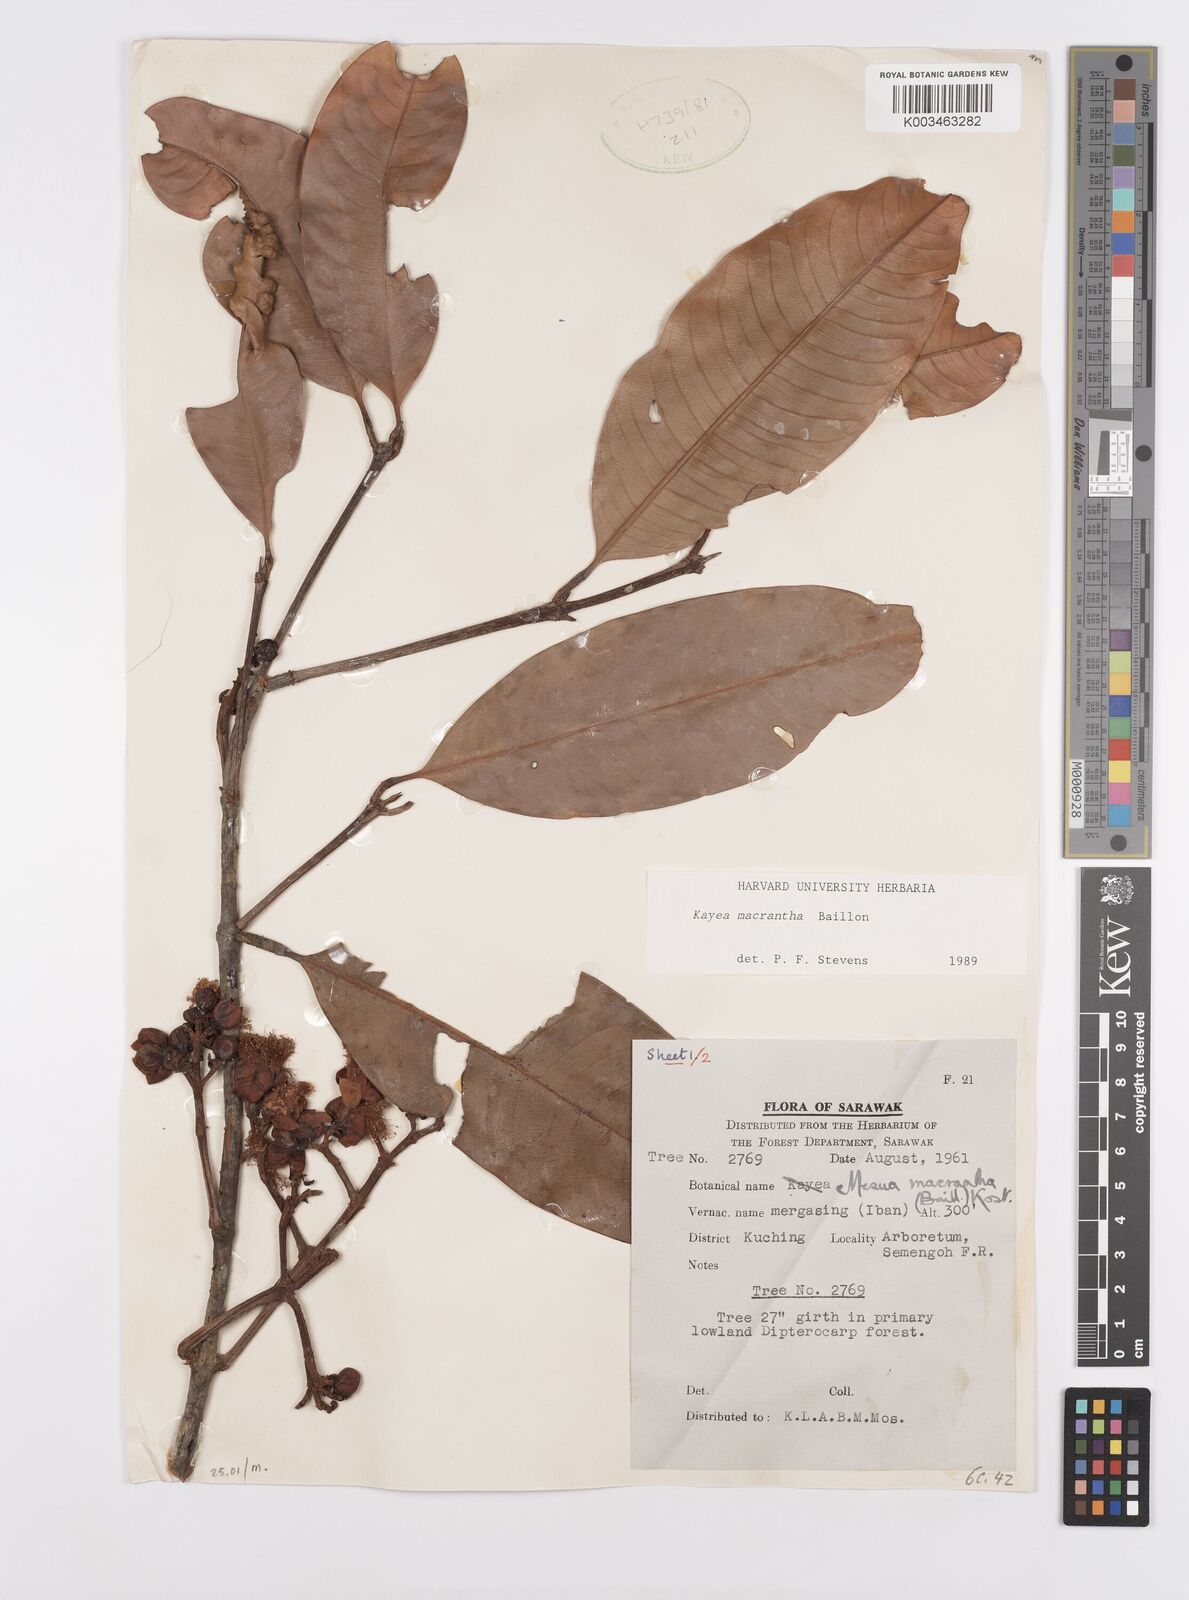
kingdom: Plantae
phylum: Tracheophyta
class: Magnoliopsida
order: Malpighiales
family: Calophyllaceae
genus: Kayea
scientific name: Kayea macrantha
